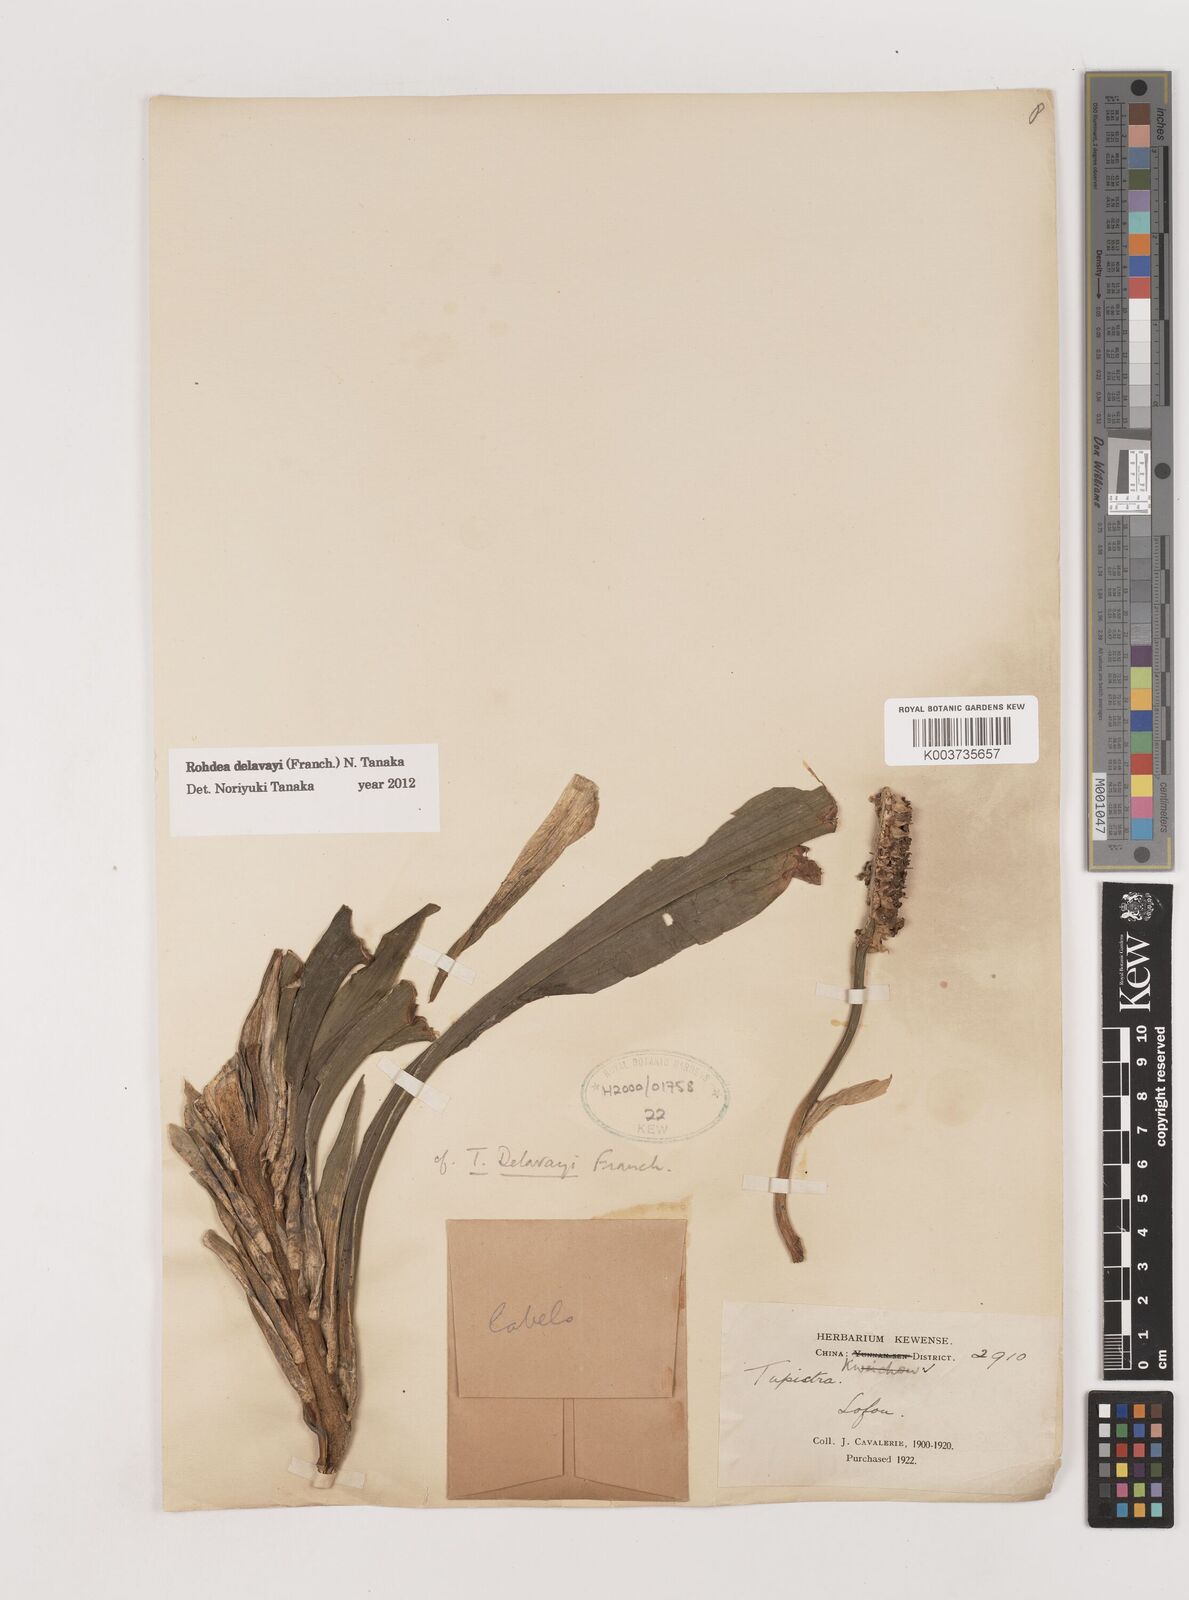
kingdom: Plantae
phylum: Tracheophyta
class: Liliopsida
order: Asparagales
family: Asparagaceae
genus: Rohdea
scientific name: Rohdea delavayi
